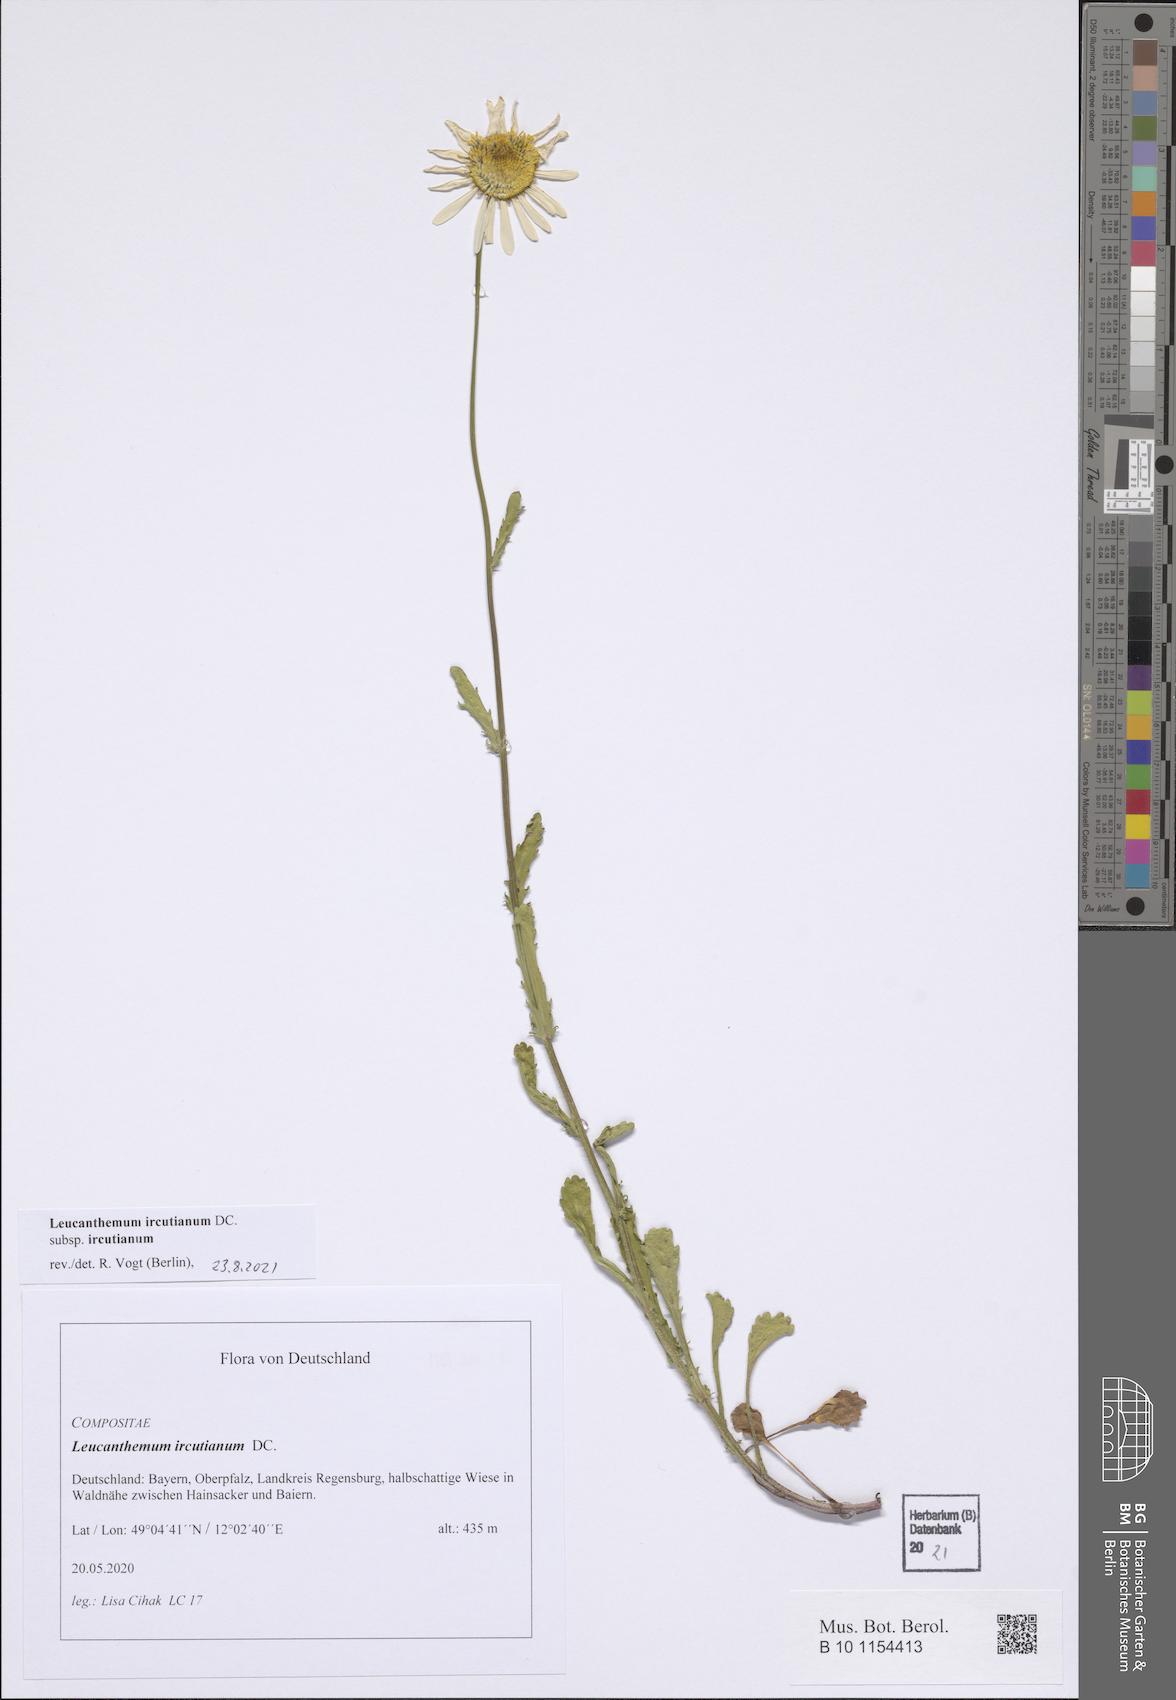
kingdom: Plantae
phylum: Tracheophyta
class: Magnoliopsida
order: Asterales
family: Asteraceae
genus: Leucanthemum
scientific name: Leucanthemum ircutianum
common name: Daisy
